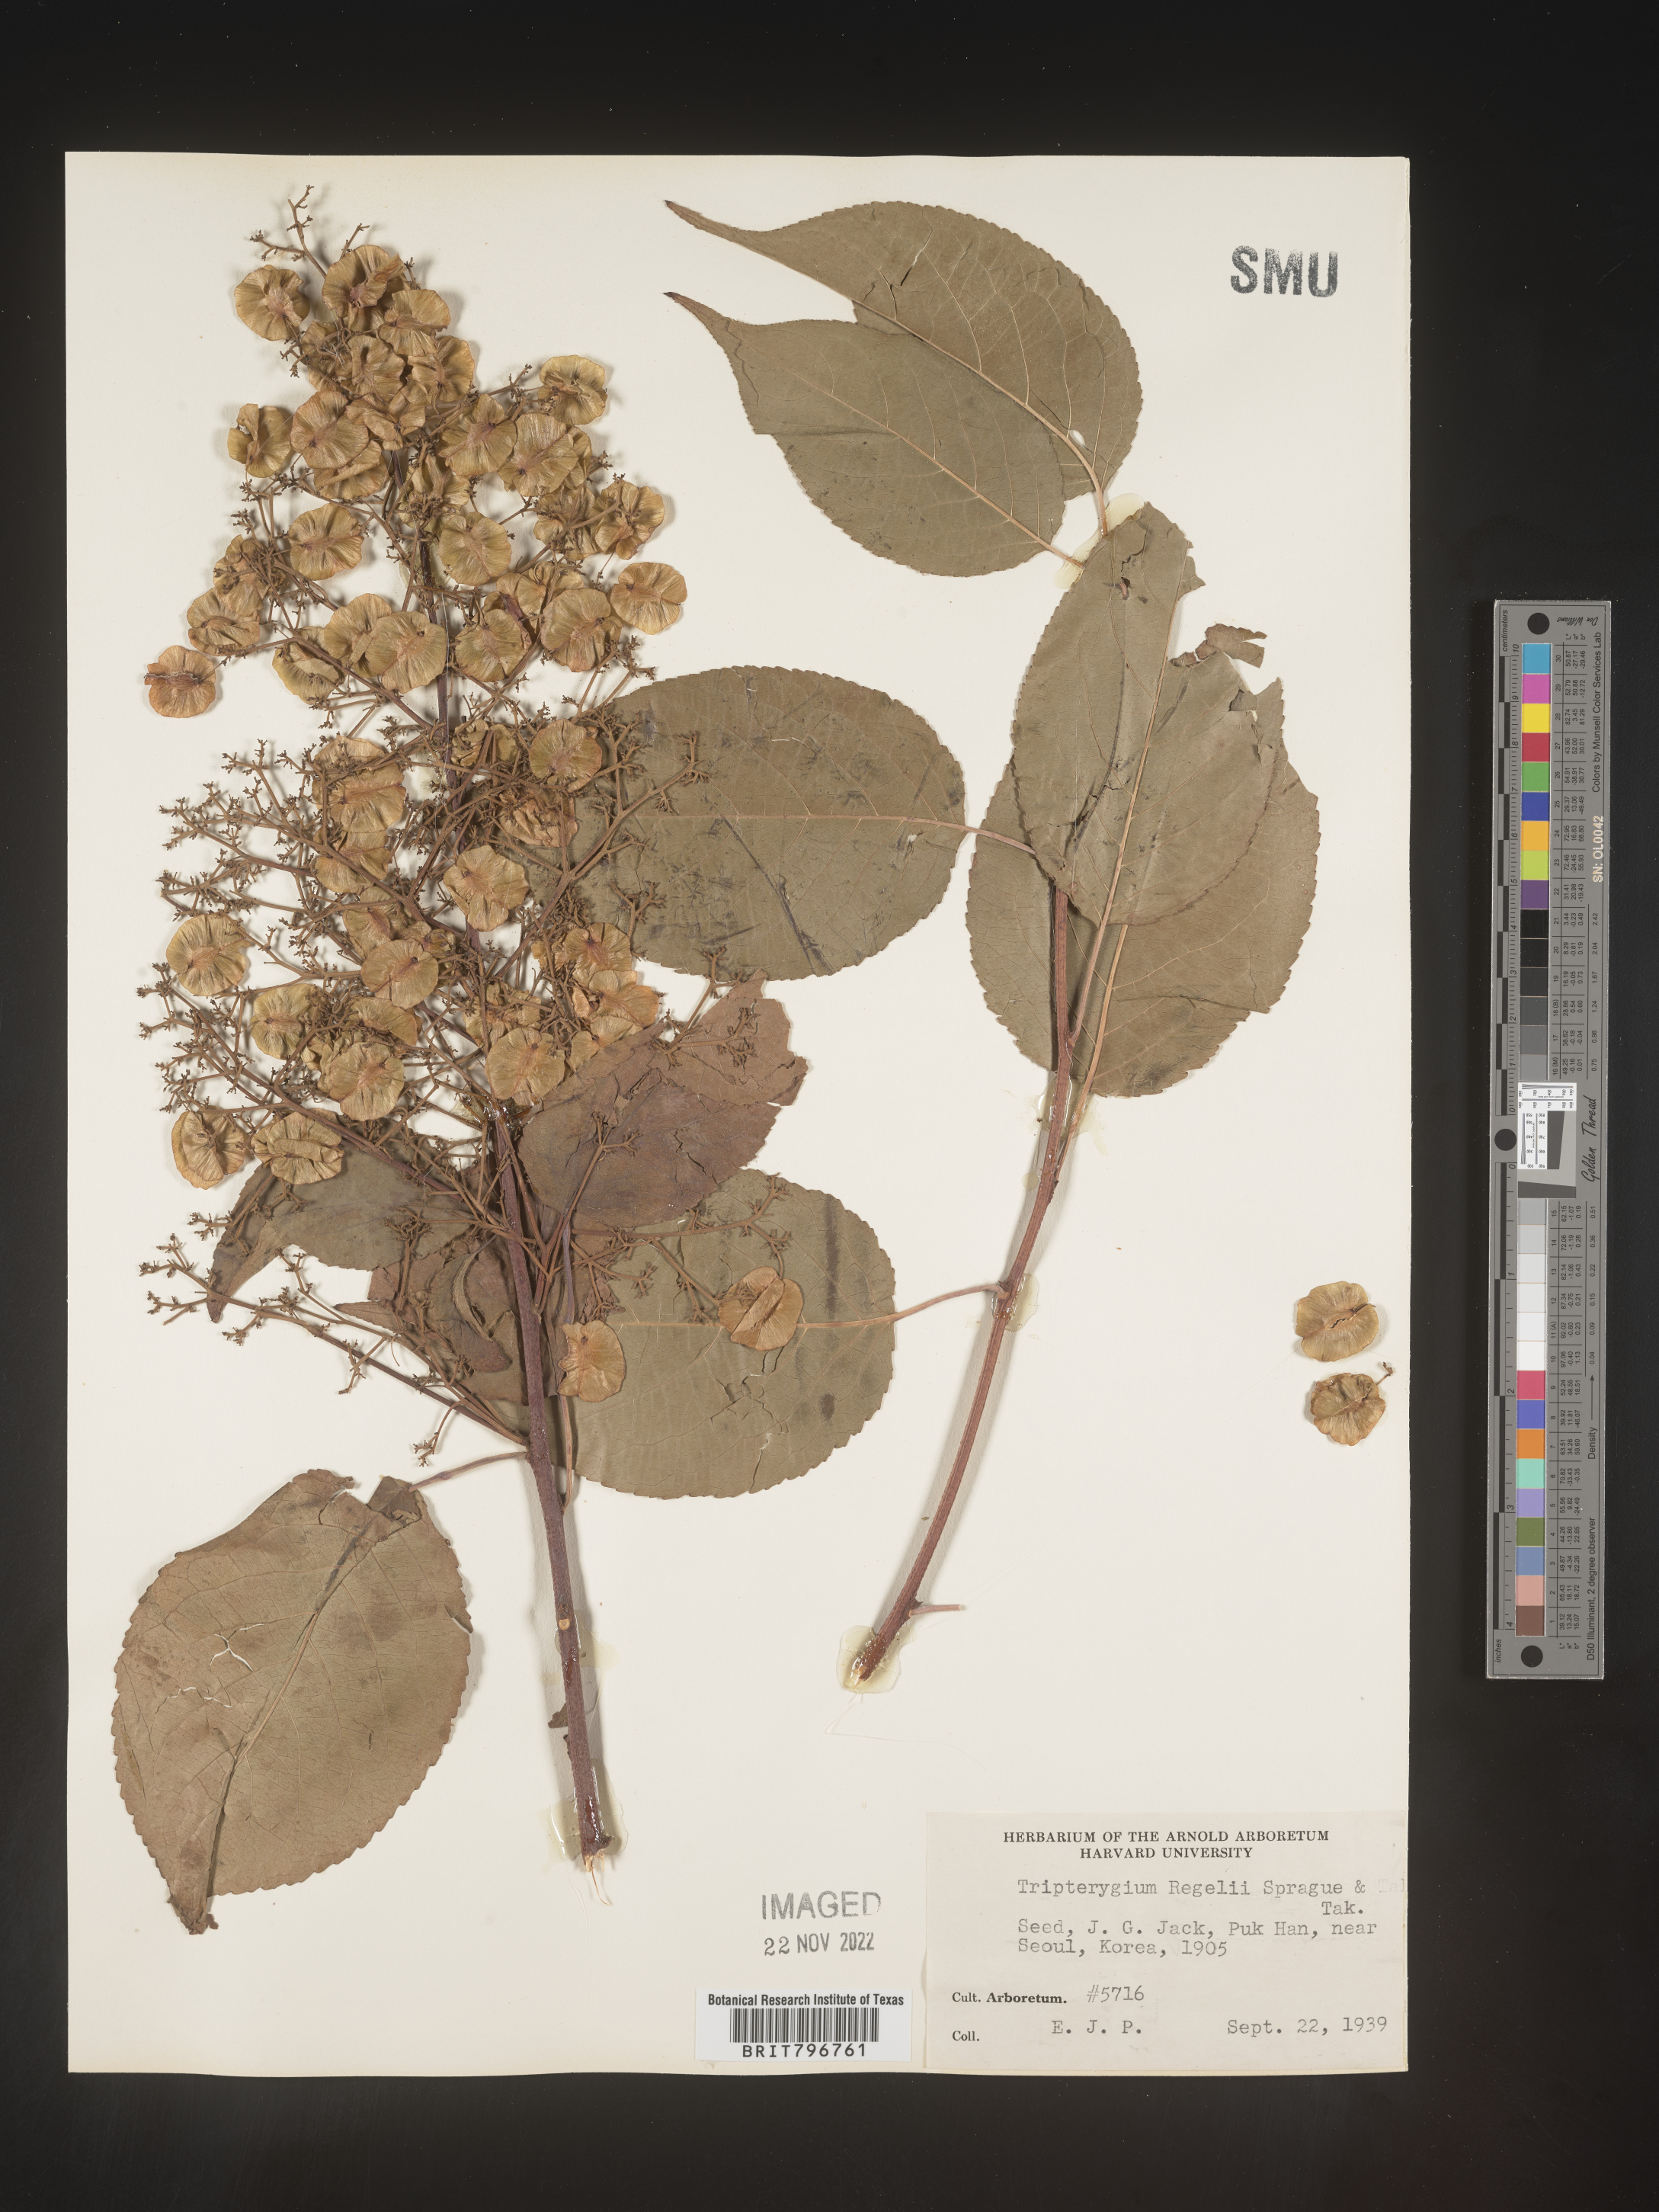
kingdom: Plantae
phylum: Tracheophyta
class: Magnoliopsida
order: Celastrales
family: Celastraceae
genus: Tripterygium
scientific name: Tripterygium
